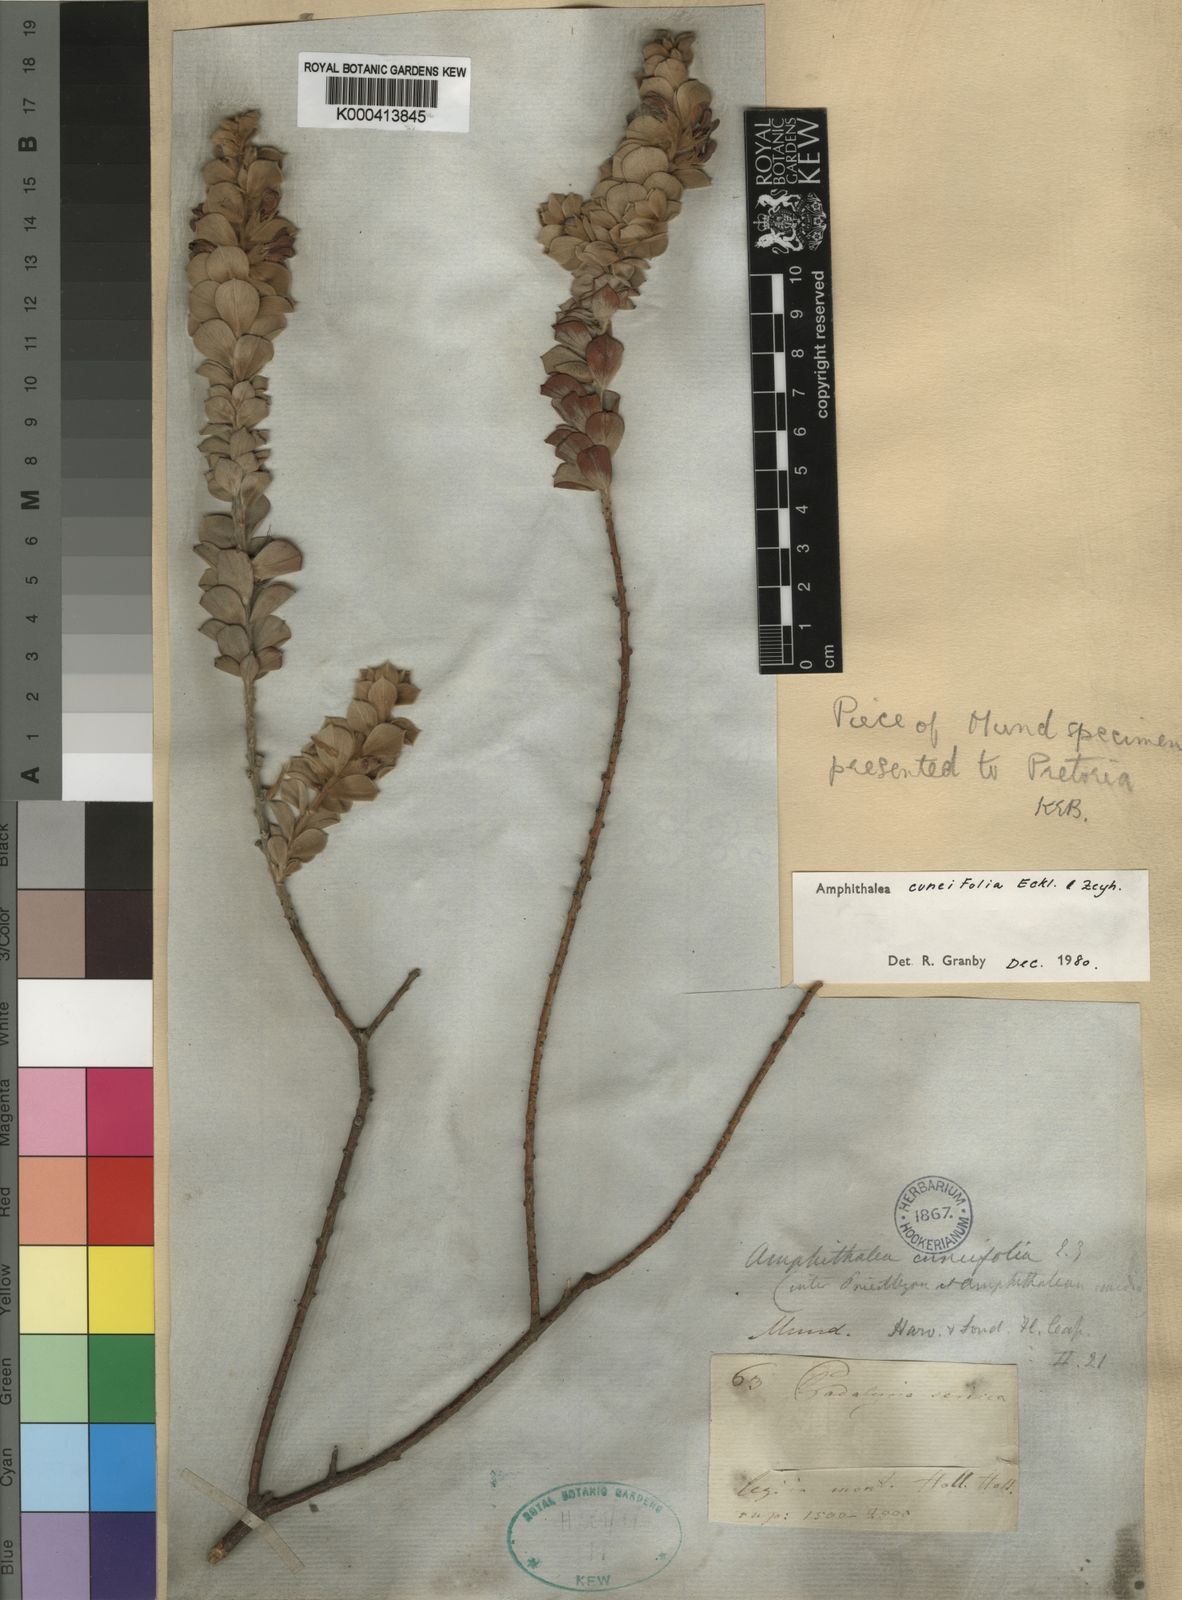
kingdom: Plantae
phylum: Tracheophyta
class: Magnoliopsida
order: Fabales
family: Fabaceae
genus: Amphithalea
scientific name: Amphithalea cuneifolia
